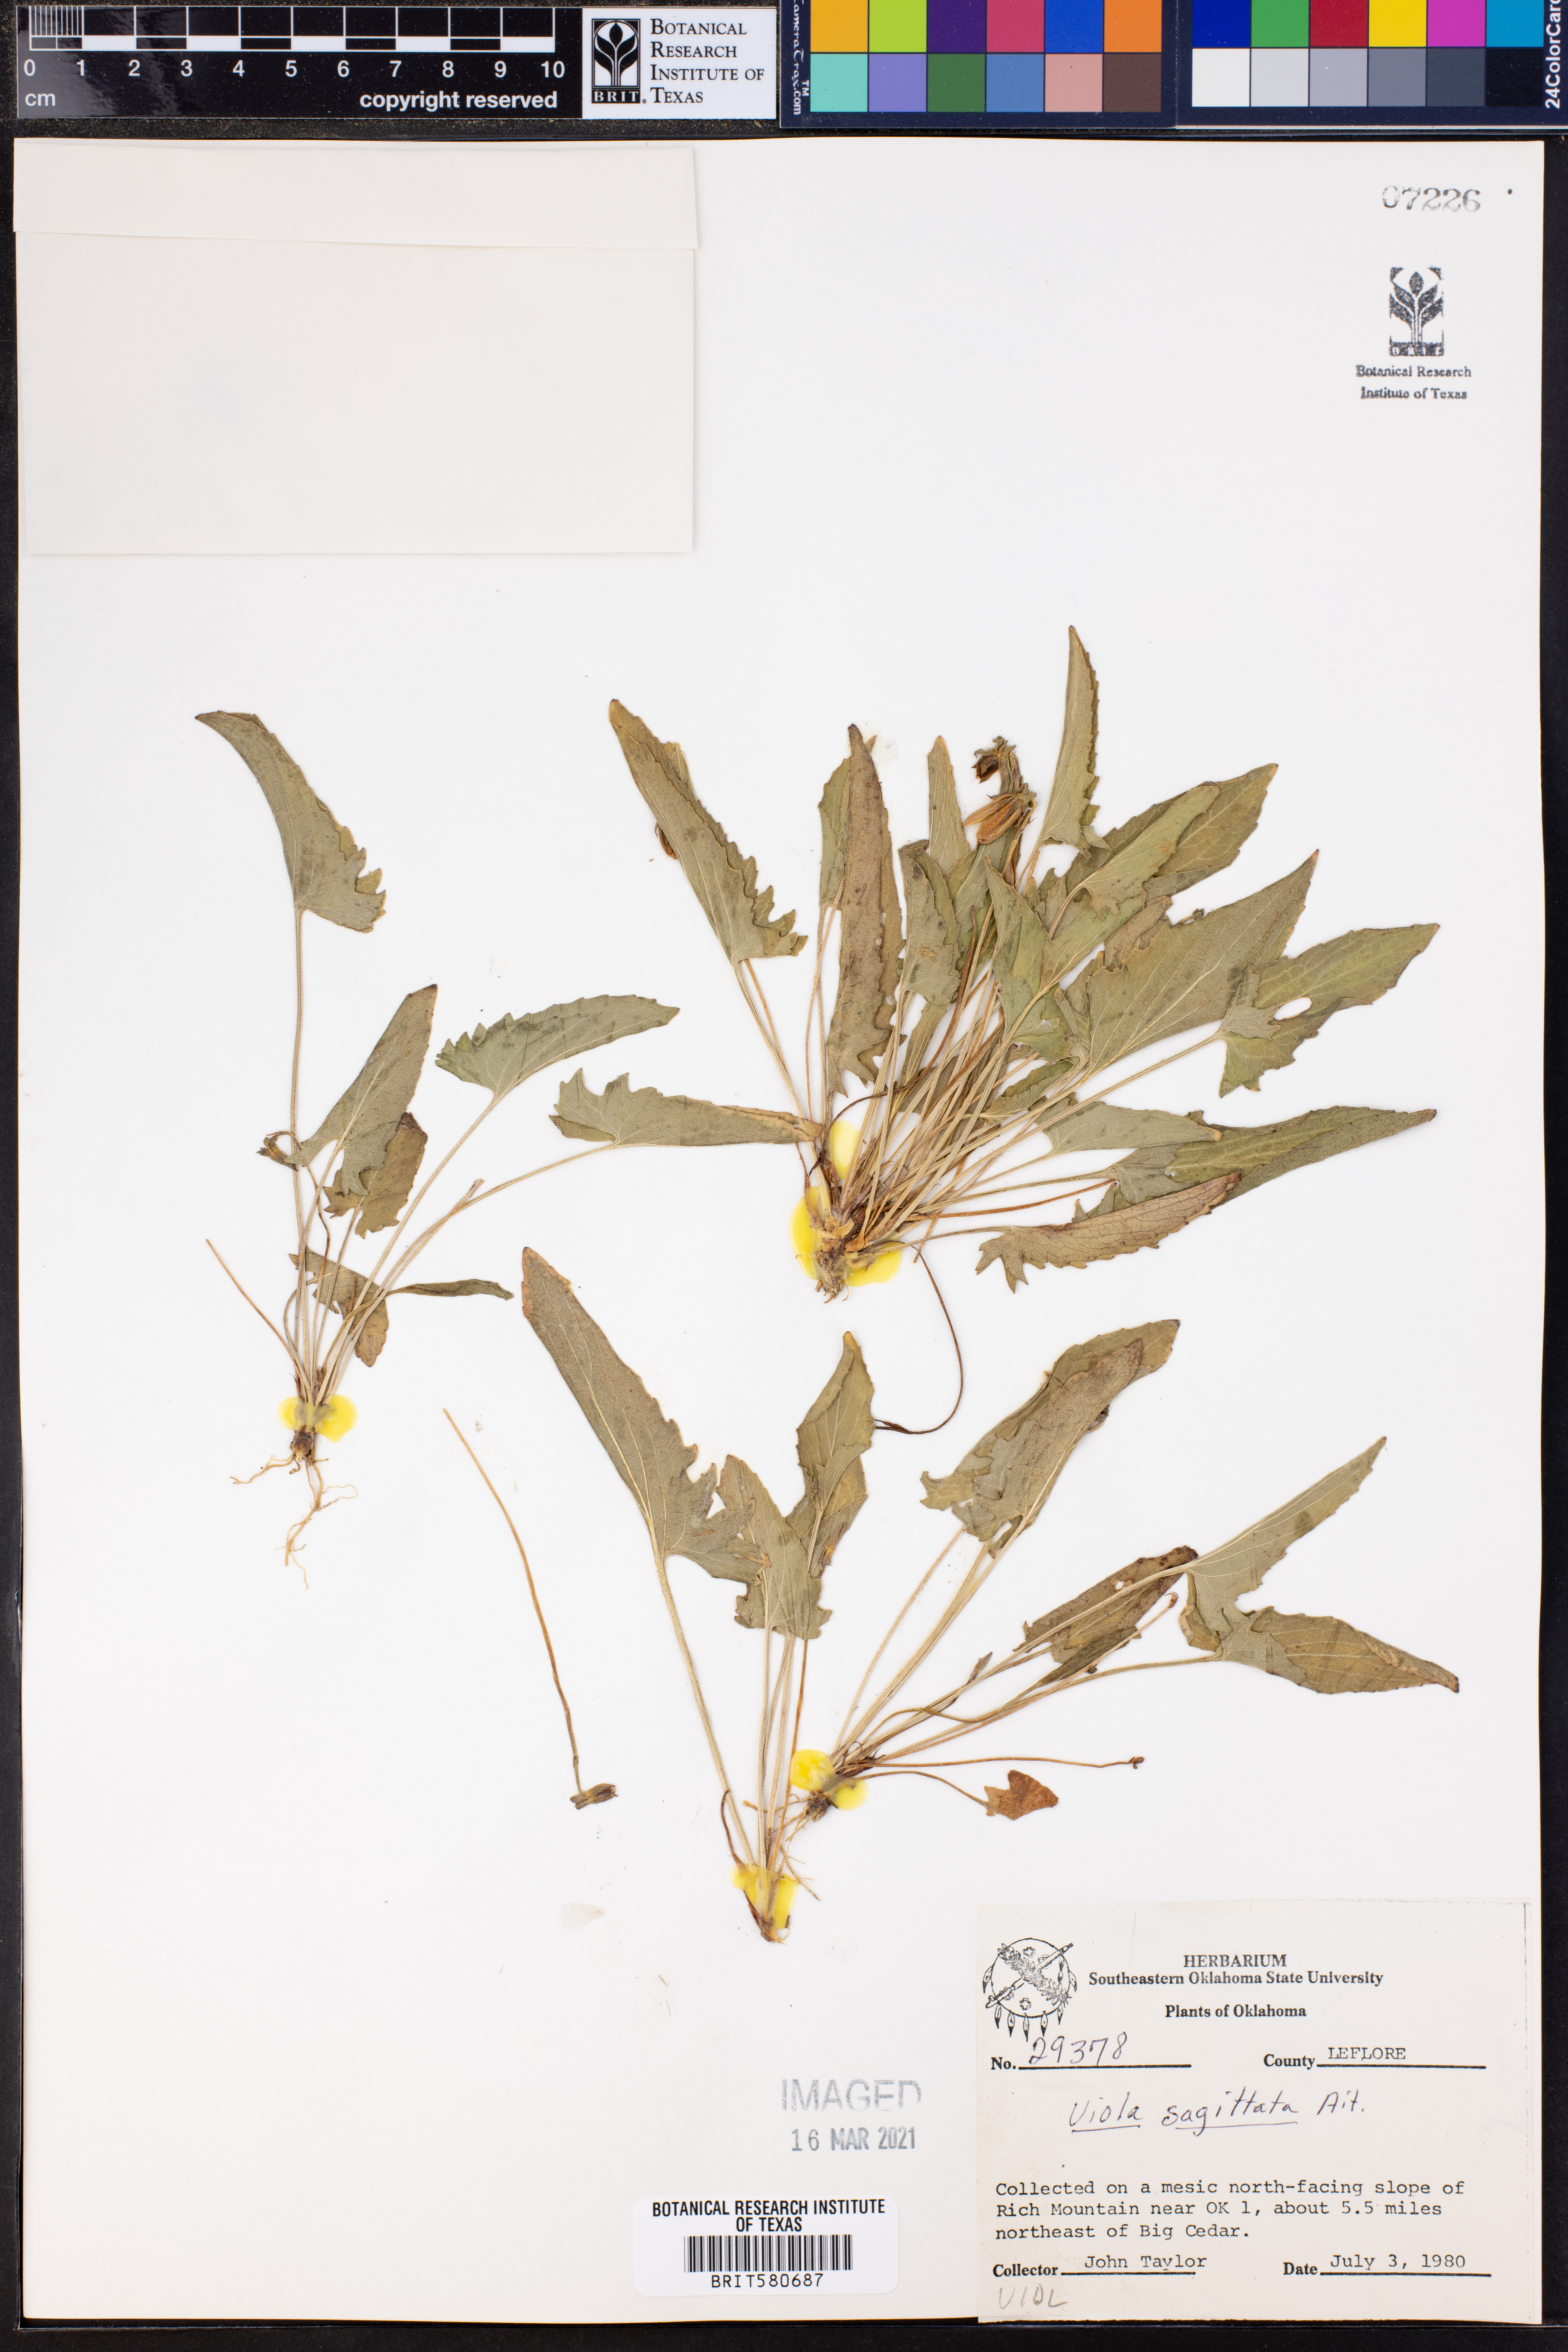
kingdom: Plantae
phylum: Tracheophyta
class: Magnoliopsida
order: Malpighiales
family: Violaceae
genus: Viola
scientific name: Viola sagittata
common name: Arrowhead violet
